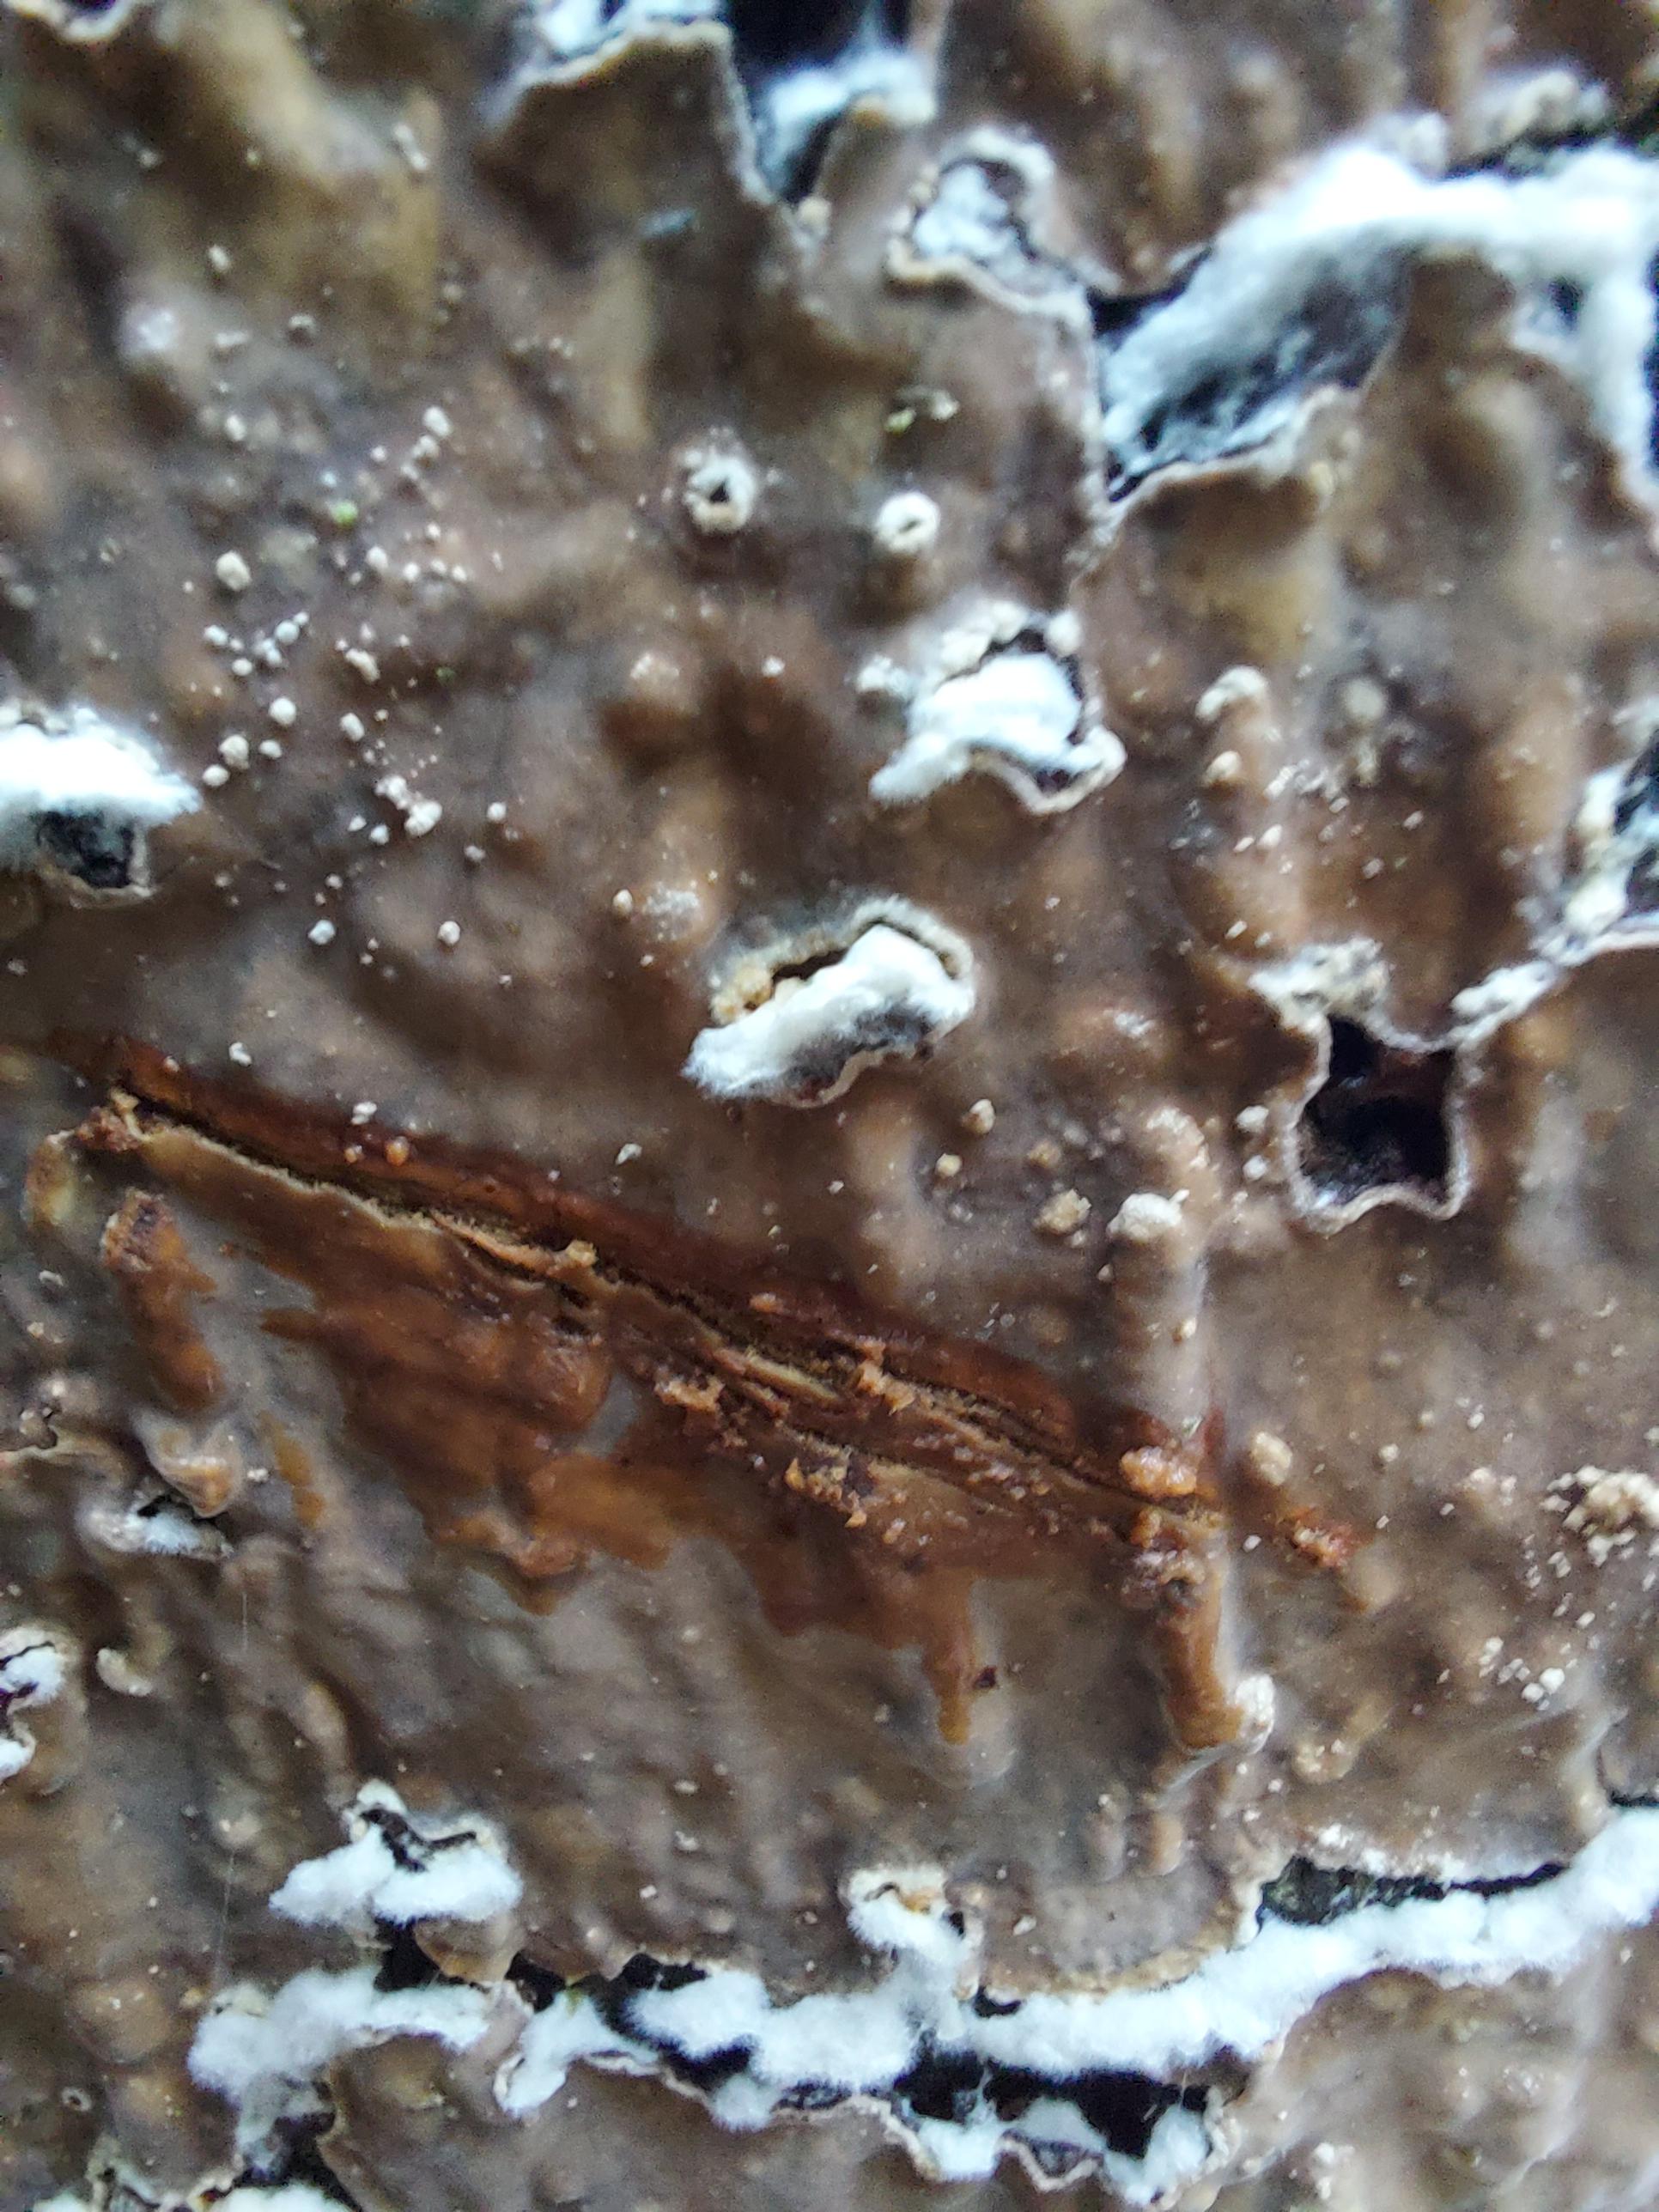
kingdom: Fungi
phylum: Basidiomycota
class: Agaricomycetes
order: Russulales
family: Stereaceae
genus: Stereum
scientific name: Stereum rugosum
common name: rynket lædersvamp
